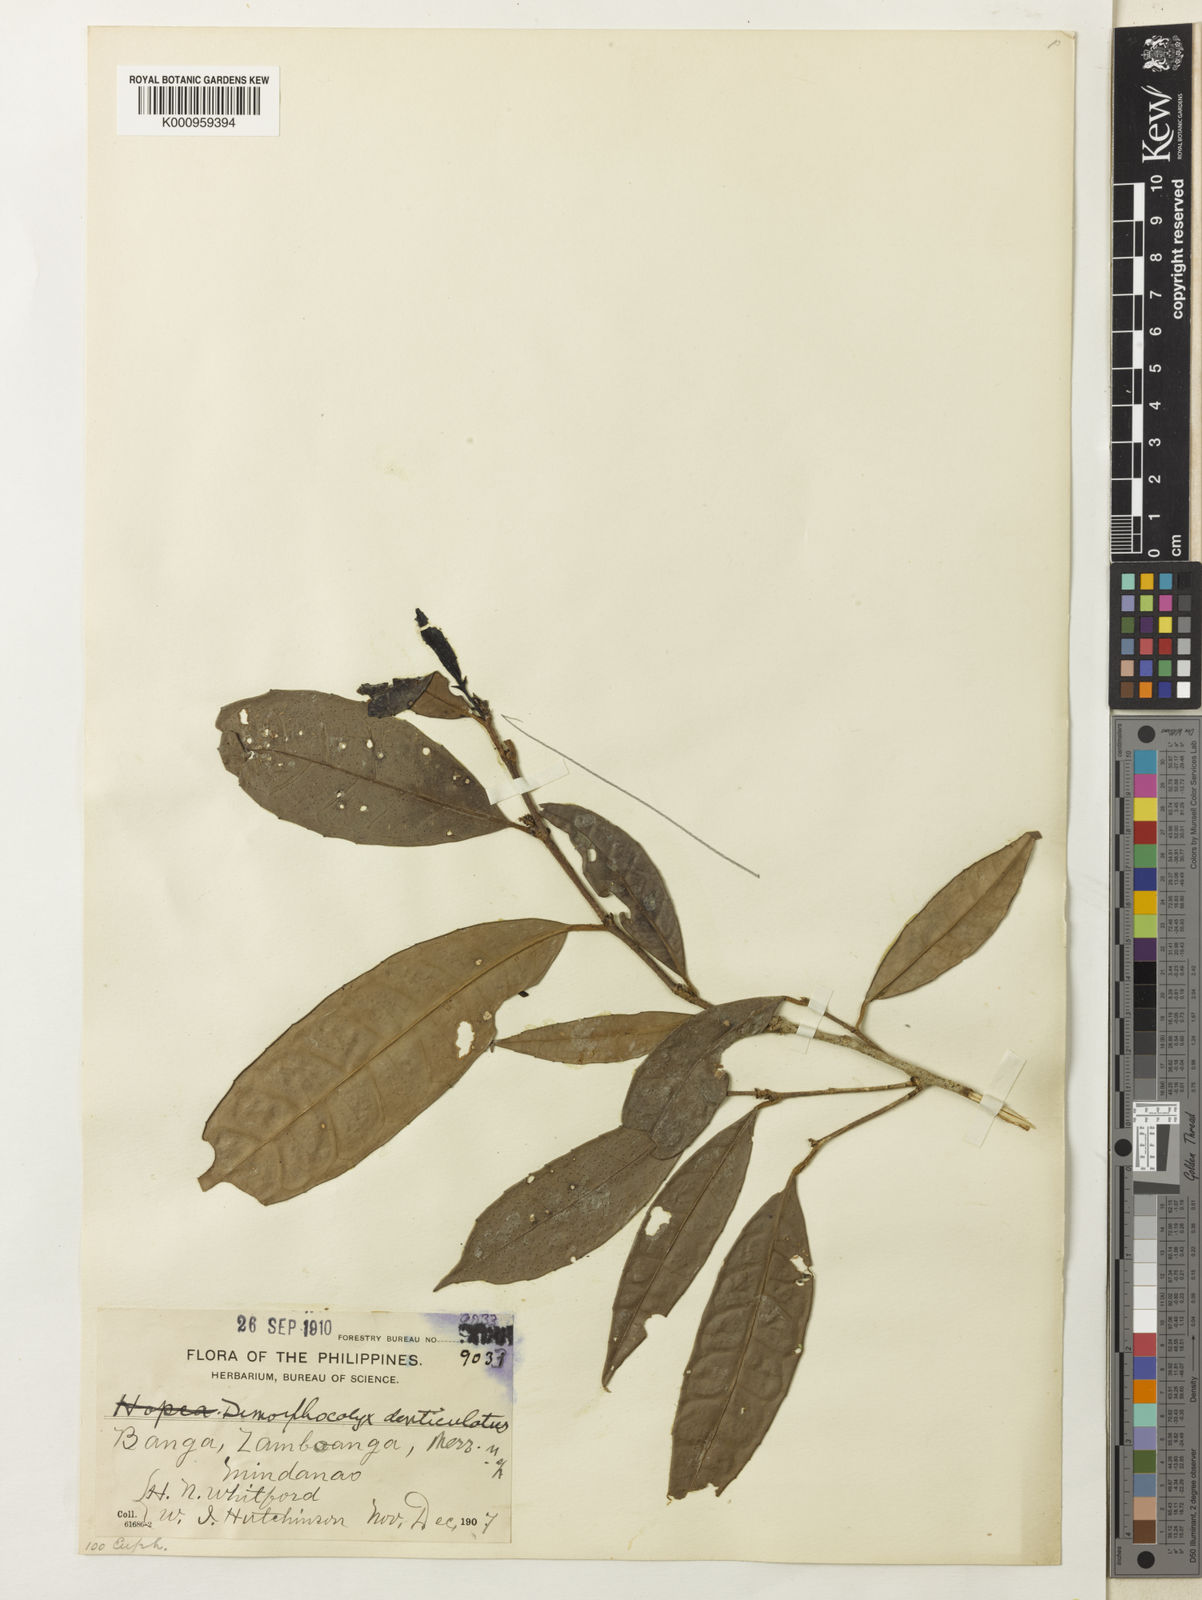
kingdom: Plantae
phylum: Tracheophyta
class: Magnoliopsida
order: Malpighiales
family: Euphorbiaceae
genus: Tritaxis
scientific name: Tritaxis denticulata
